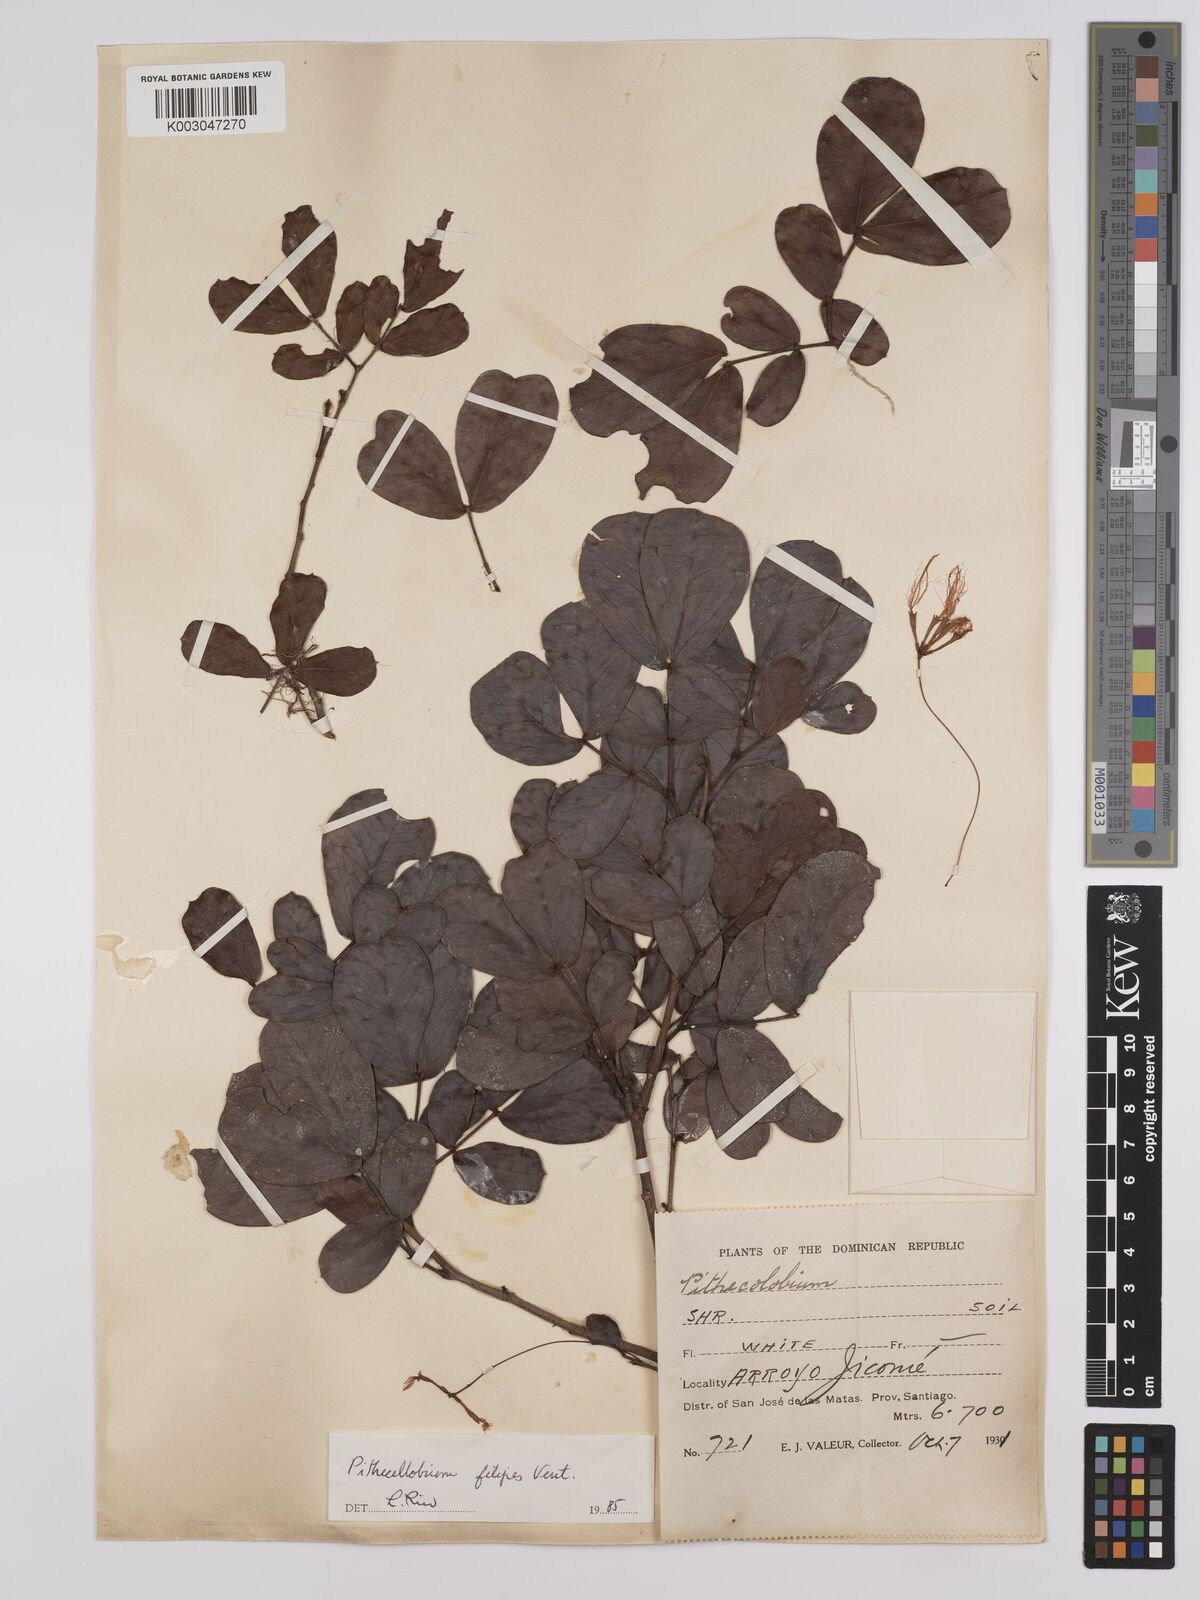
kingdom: Plantae
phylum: Tracheophyta
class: Magnoliopsida
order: Fabales
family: Fabaceae
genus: Albizia
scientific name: Albizia
